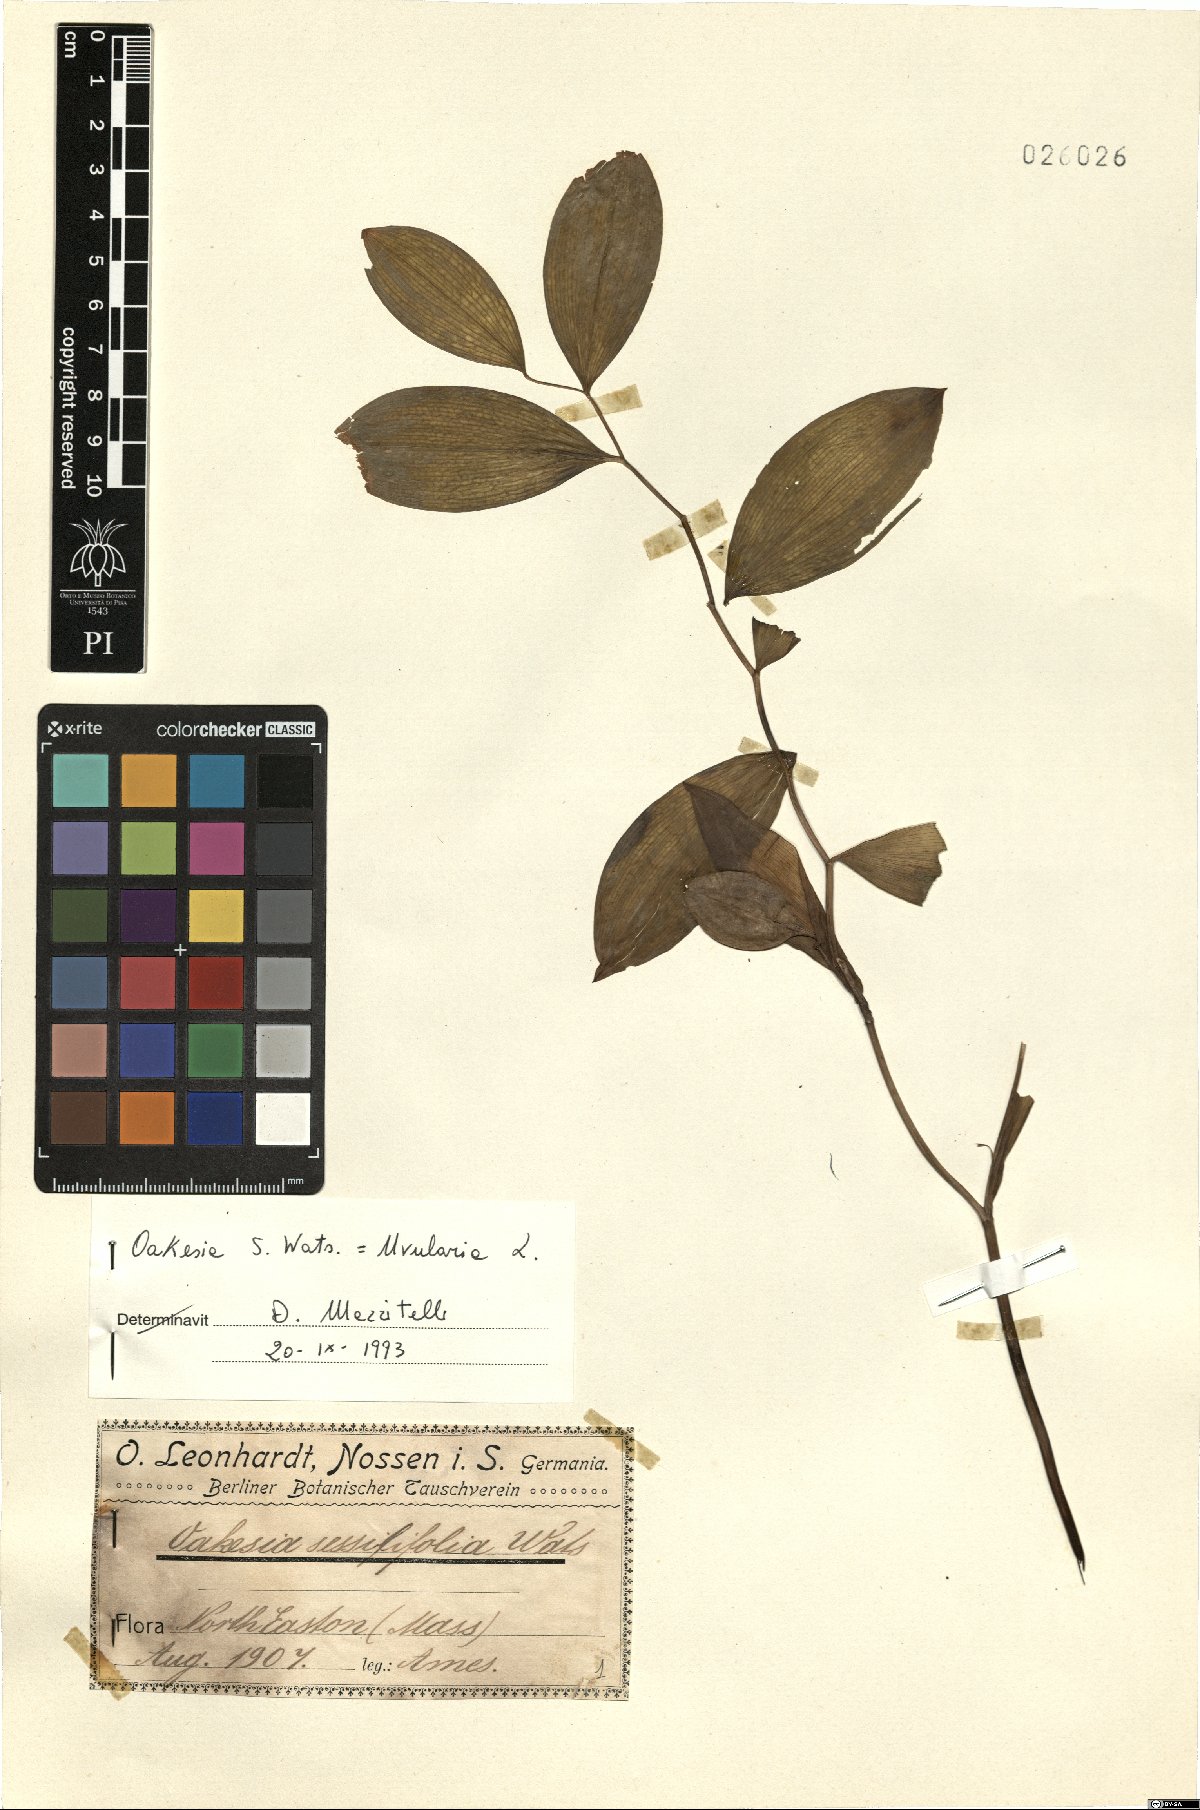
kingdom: Plantae
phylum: Tracheophyta
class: Liliopsida
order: Liliales
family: Colchicaceae
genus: Uvularia
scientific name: Uvularia sessilifolia
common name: Straw-lily
